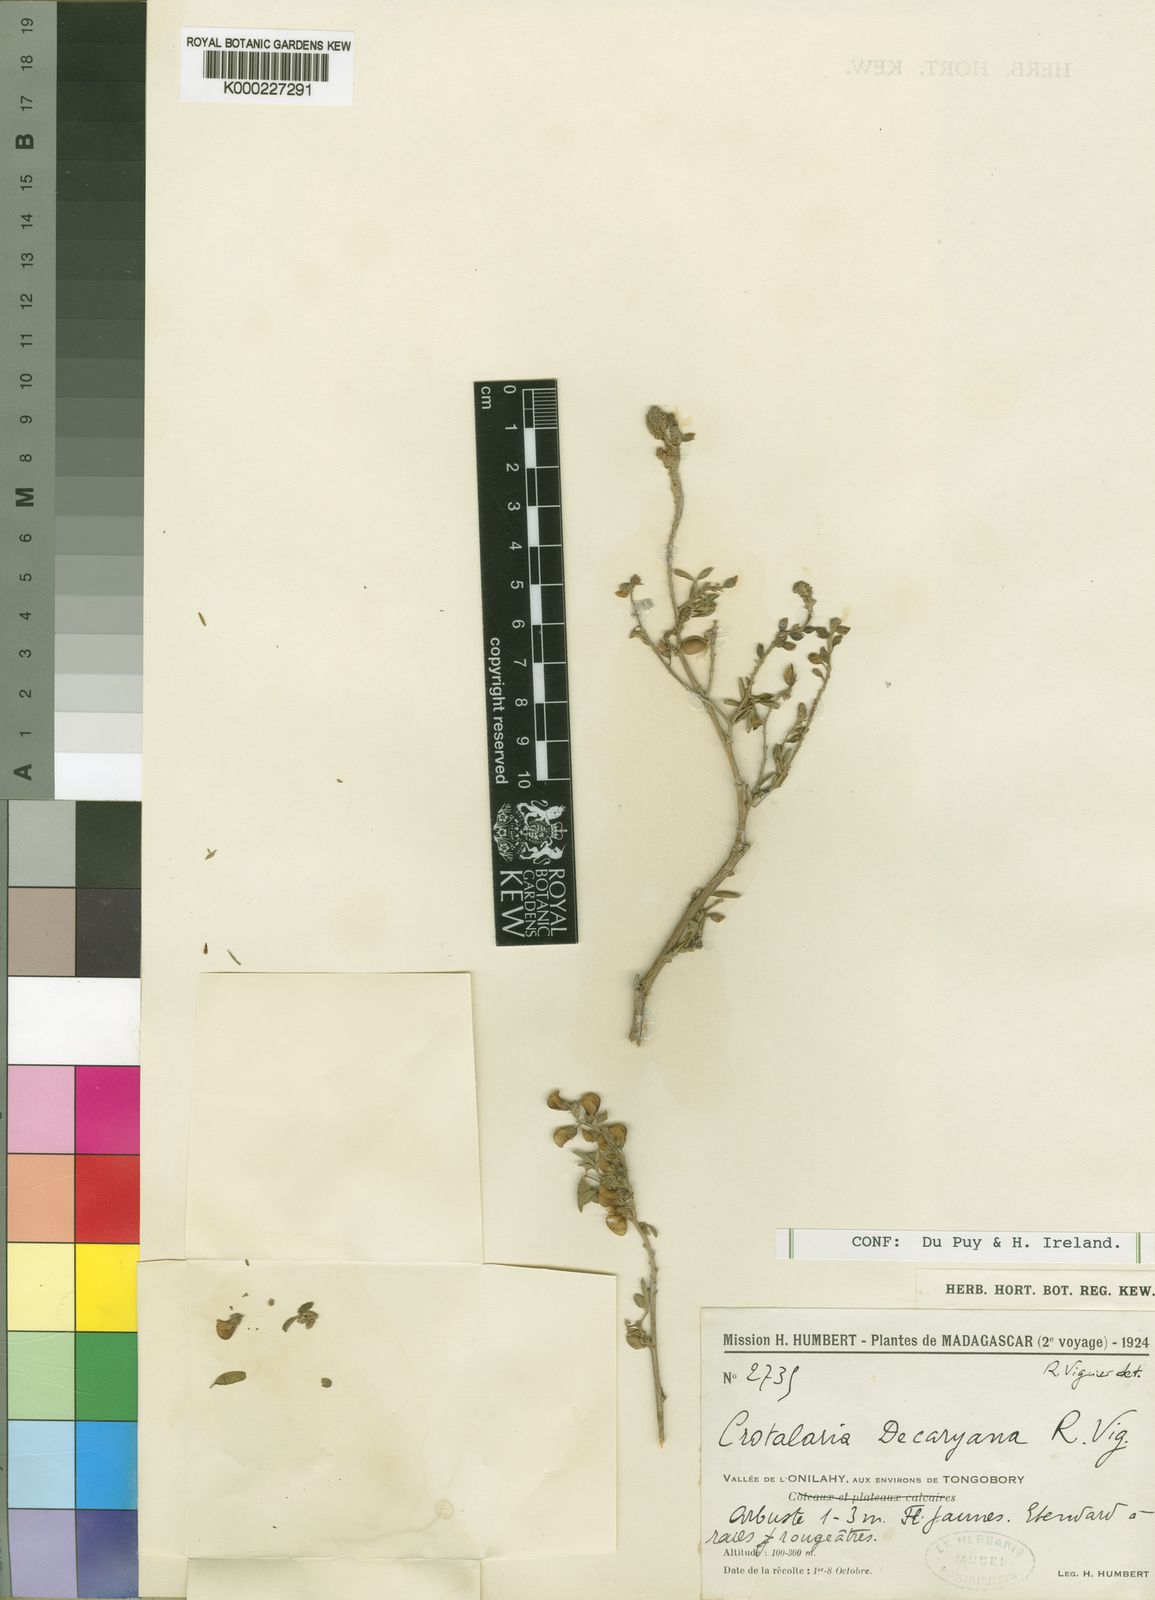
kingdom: Plantae
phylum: Tracheophyta
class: Magnoliopsida
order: Fabales
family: Fabaceae
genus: Crotalaria
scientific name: Crotalaria decaryana
